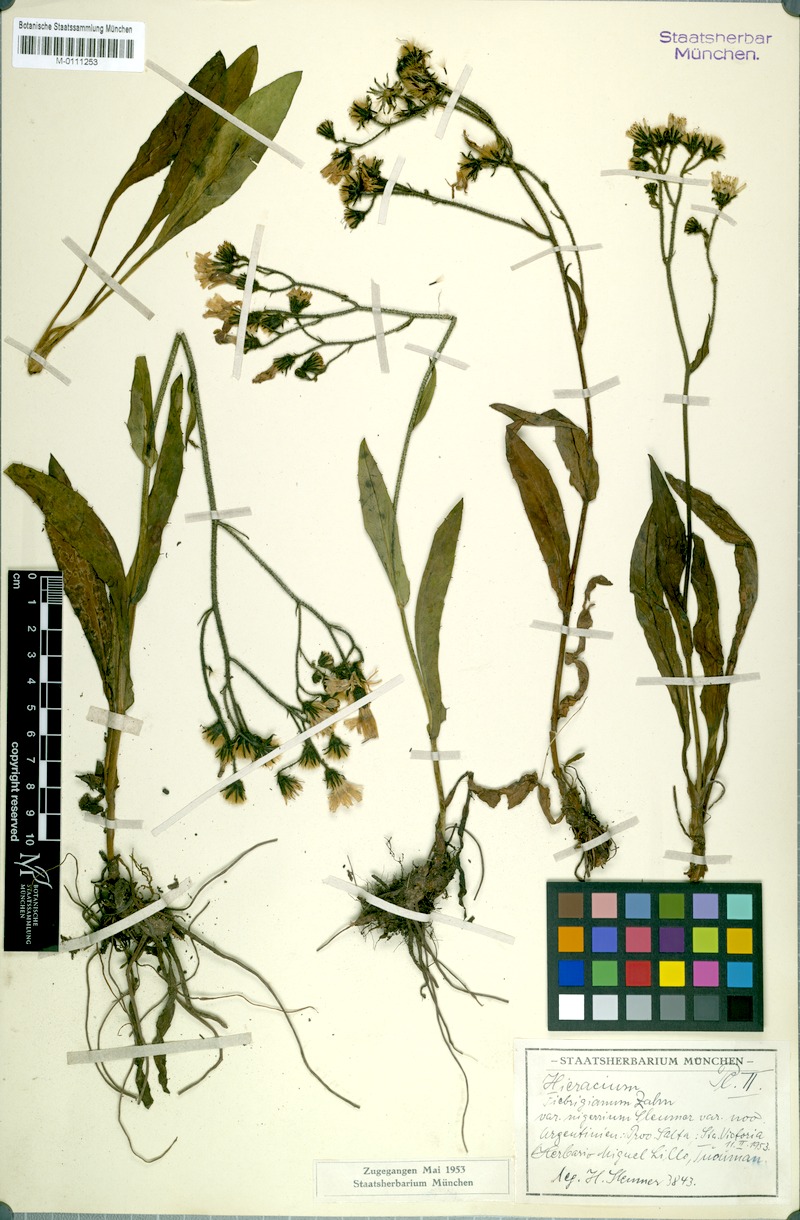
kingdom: Plantae
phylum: Tracheophyta
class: Magnoliopsida
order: Asterales
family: Asteraceae
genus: Hieracium
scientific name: Hieracium fulvipes
